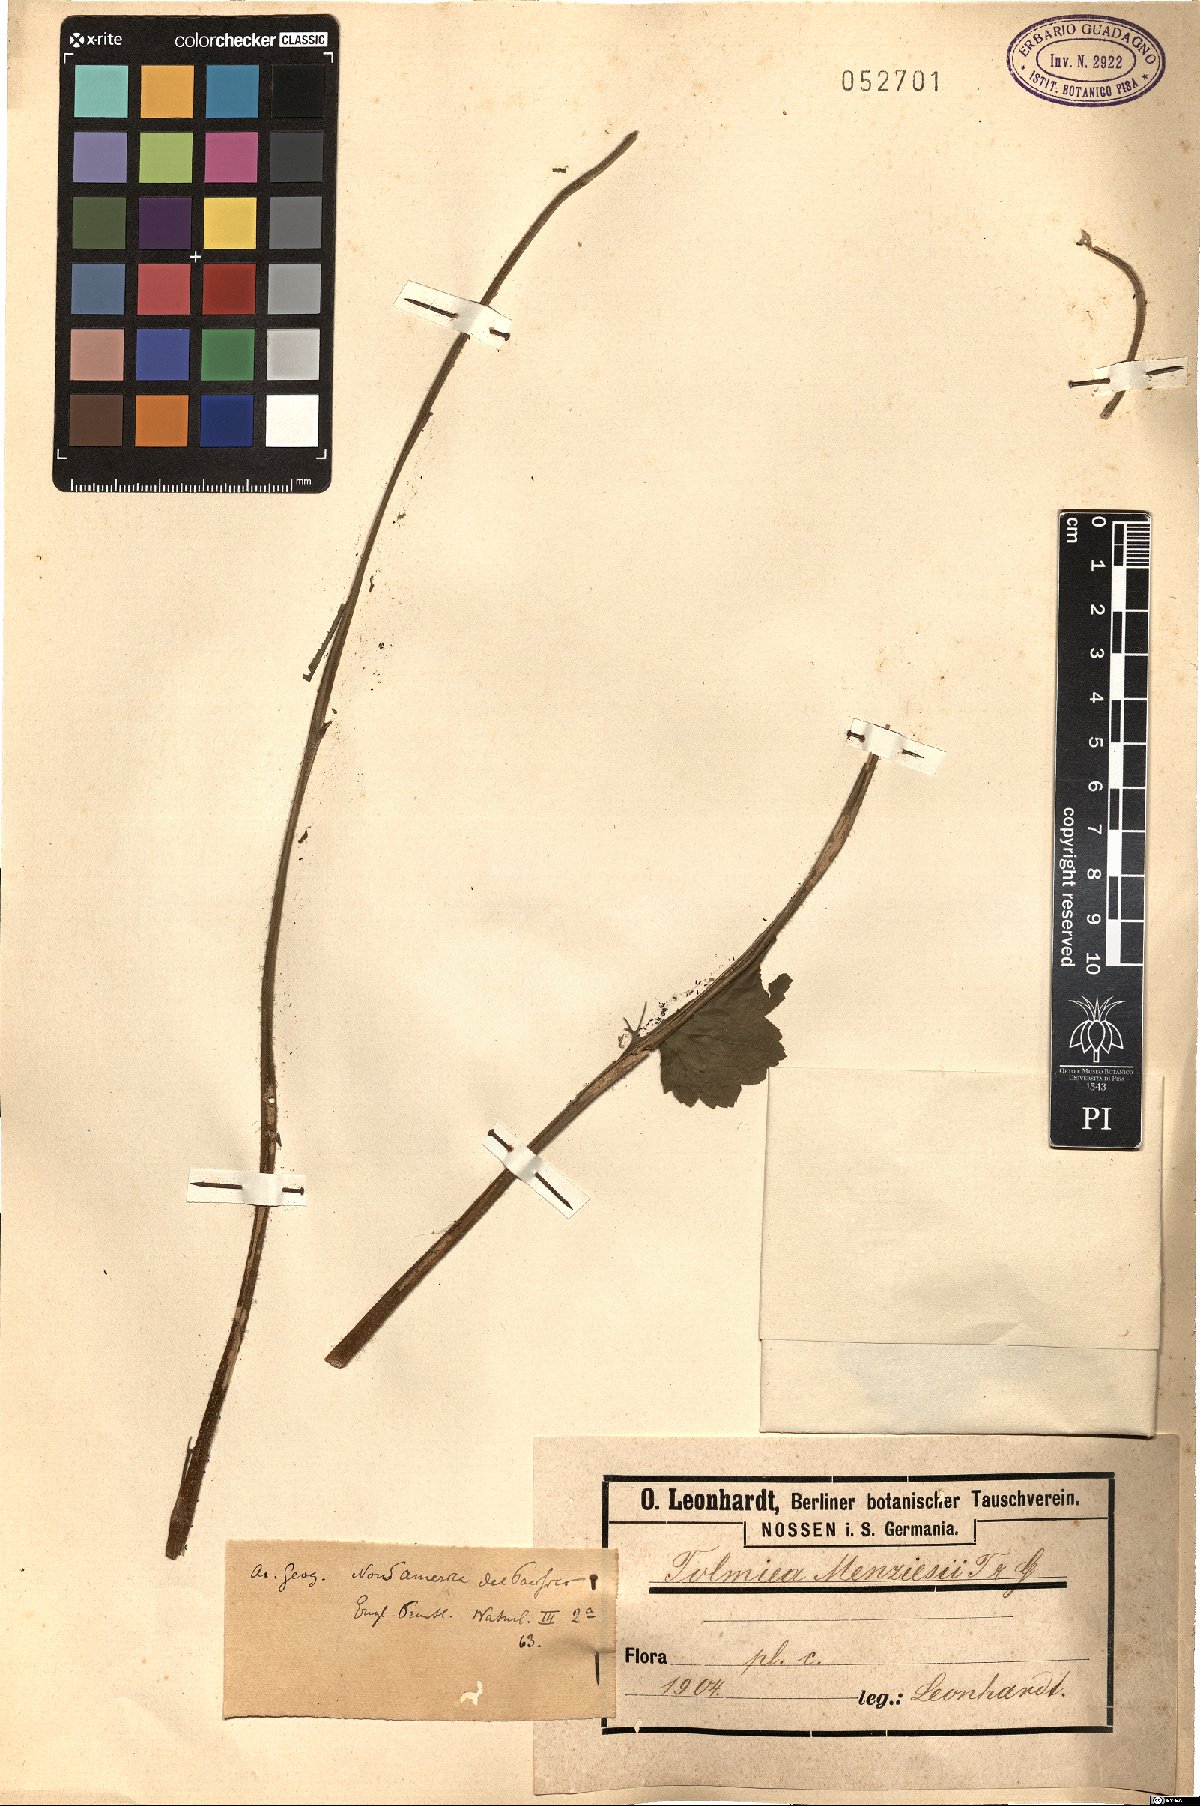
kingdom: Plantae
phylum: Tracheophyta
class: Magnoliopsida
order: Saxifragales
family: Saxifragaceae
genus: Tolmiea
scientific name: Tolmiea menziesii
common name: Pick-a-back-plant
